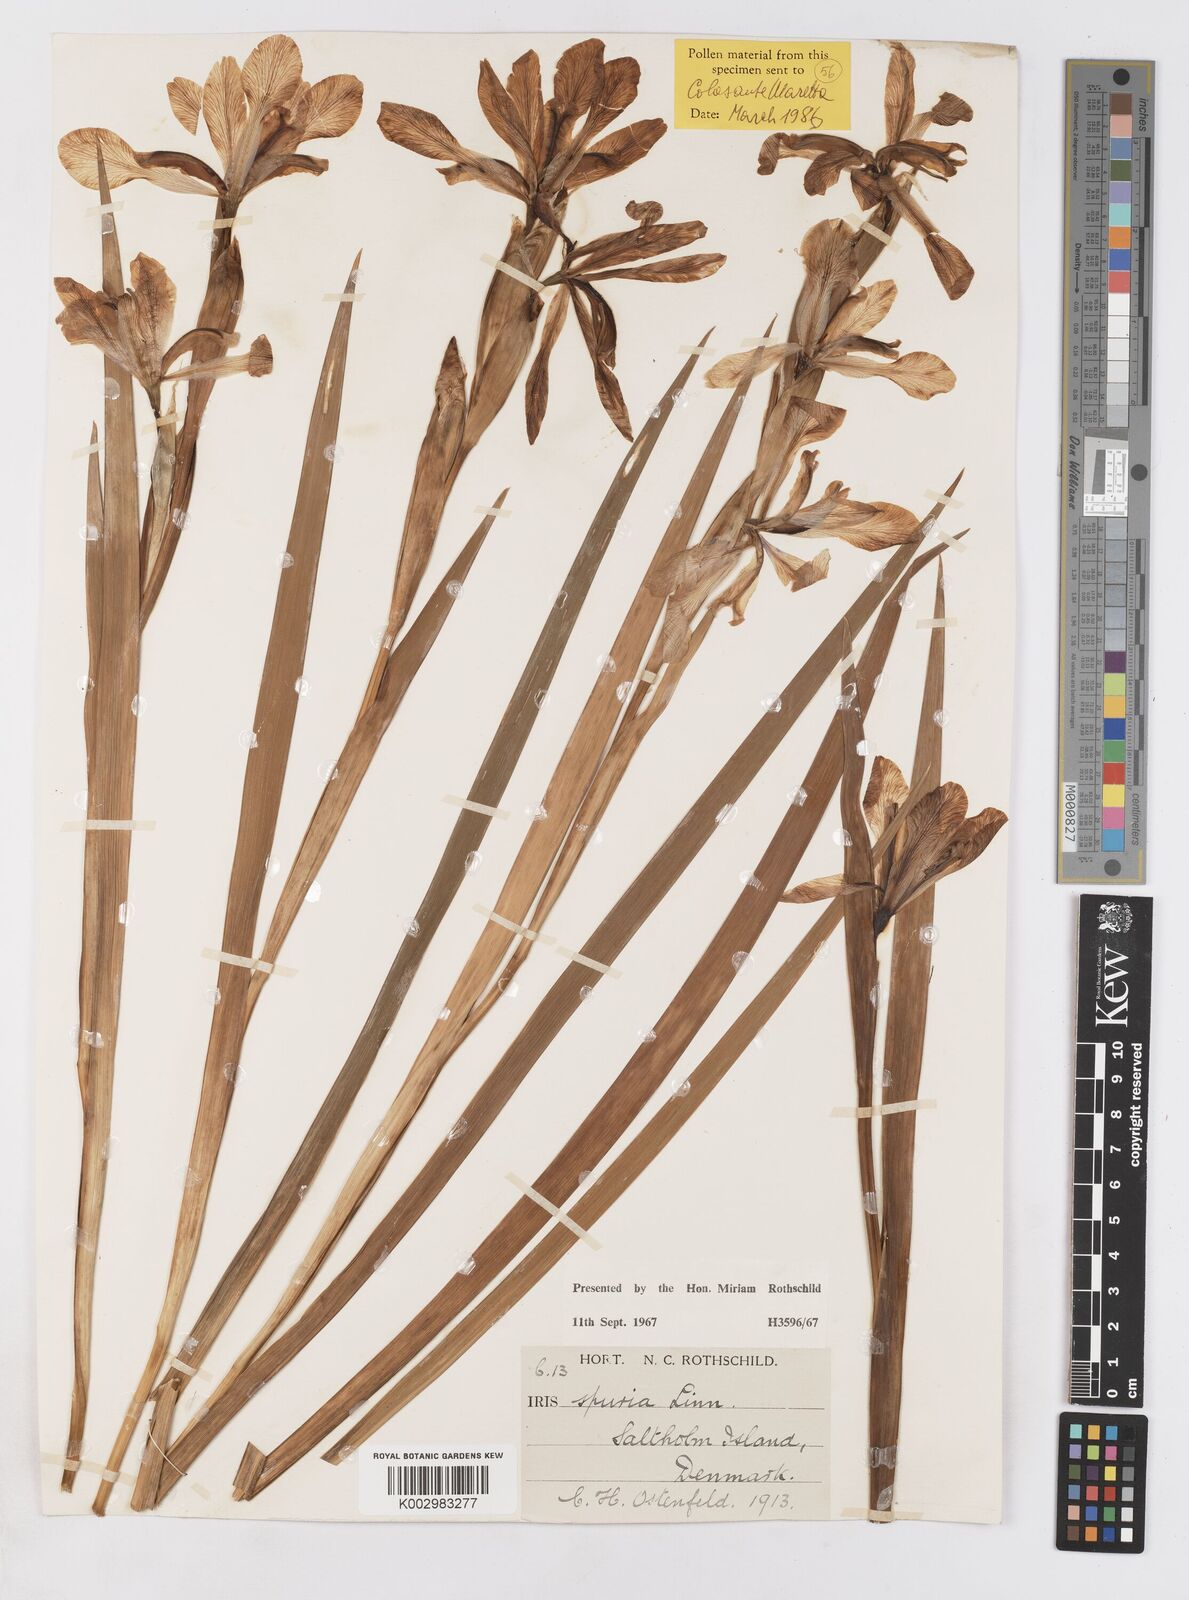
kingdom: Plantae
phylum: Tracheophyta
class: Liliopsida
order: Asparagales
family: Iridaceae
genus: Iris
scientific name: Iris spuria
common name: Blue iris
